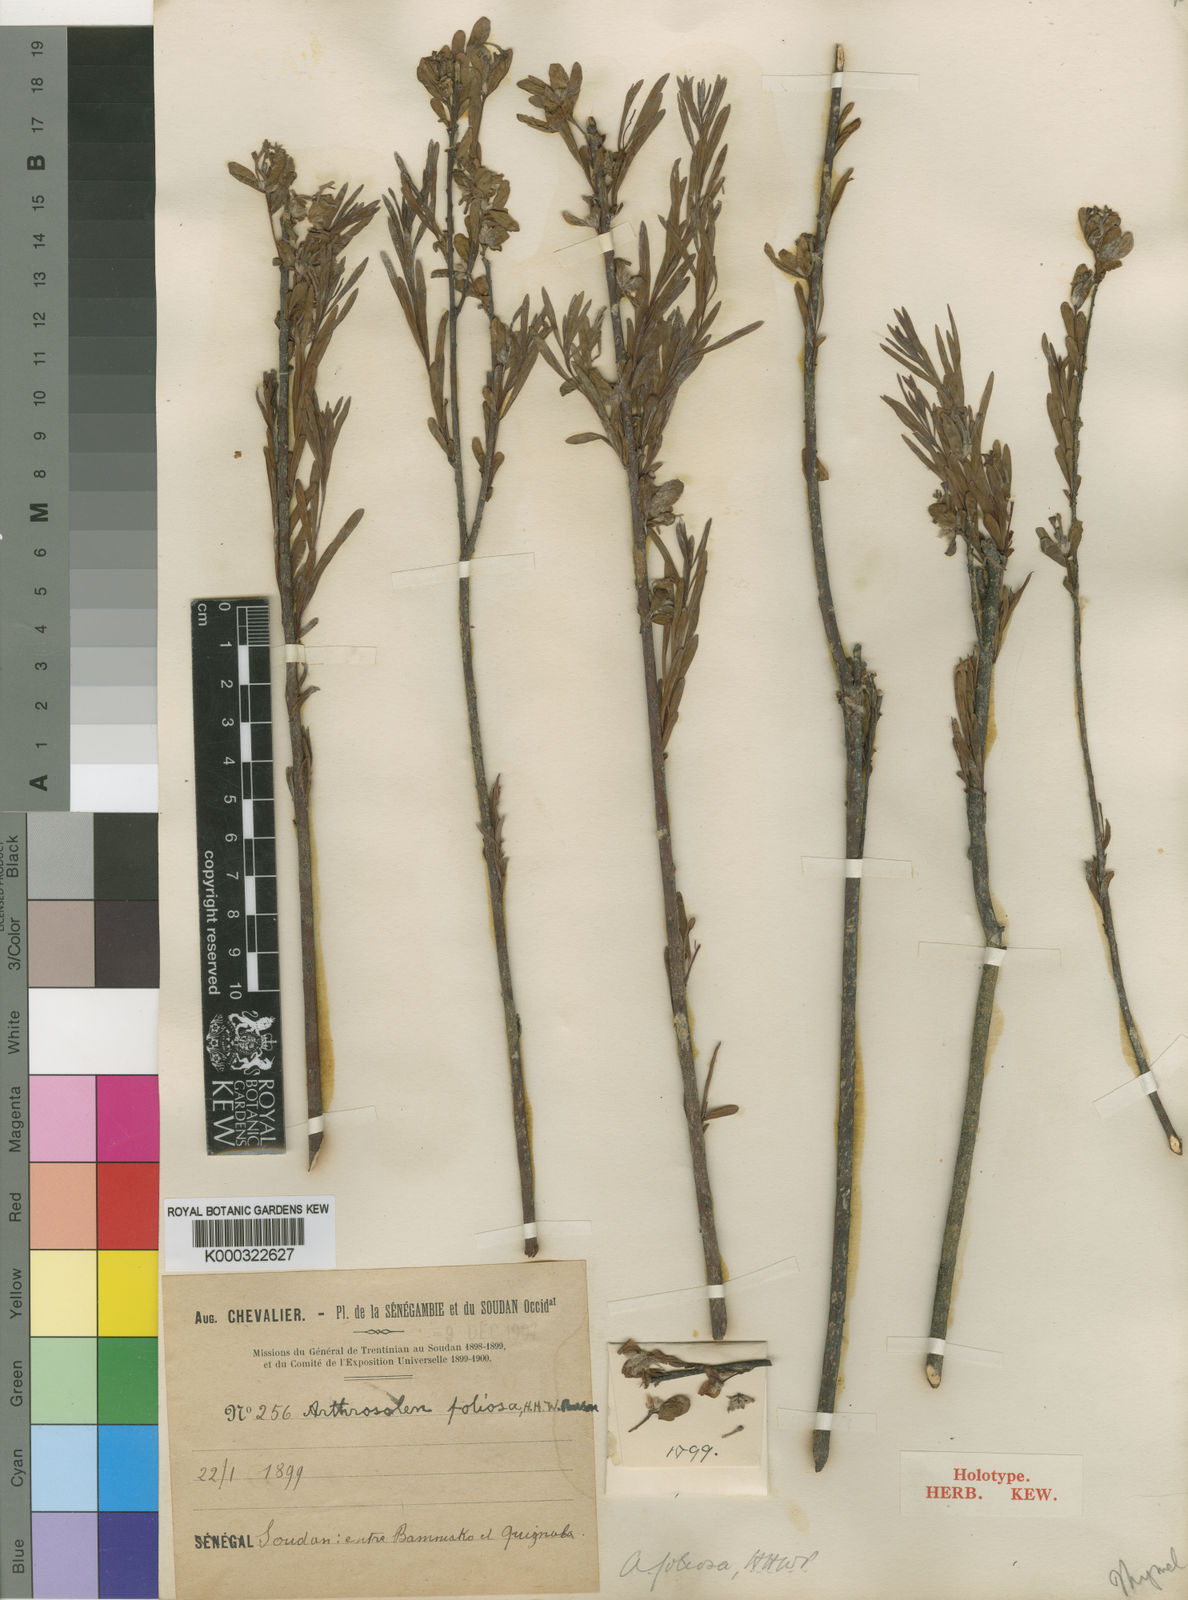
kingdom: Plantae
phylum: Tracheophyta
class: Magnoliopsida
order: Malvales
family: Thymelaeaceae
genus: Gnidia
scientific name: Gnidia foliosa
